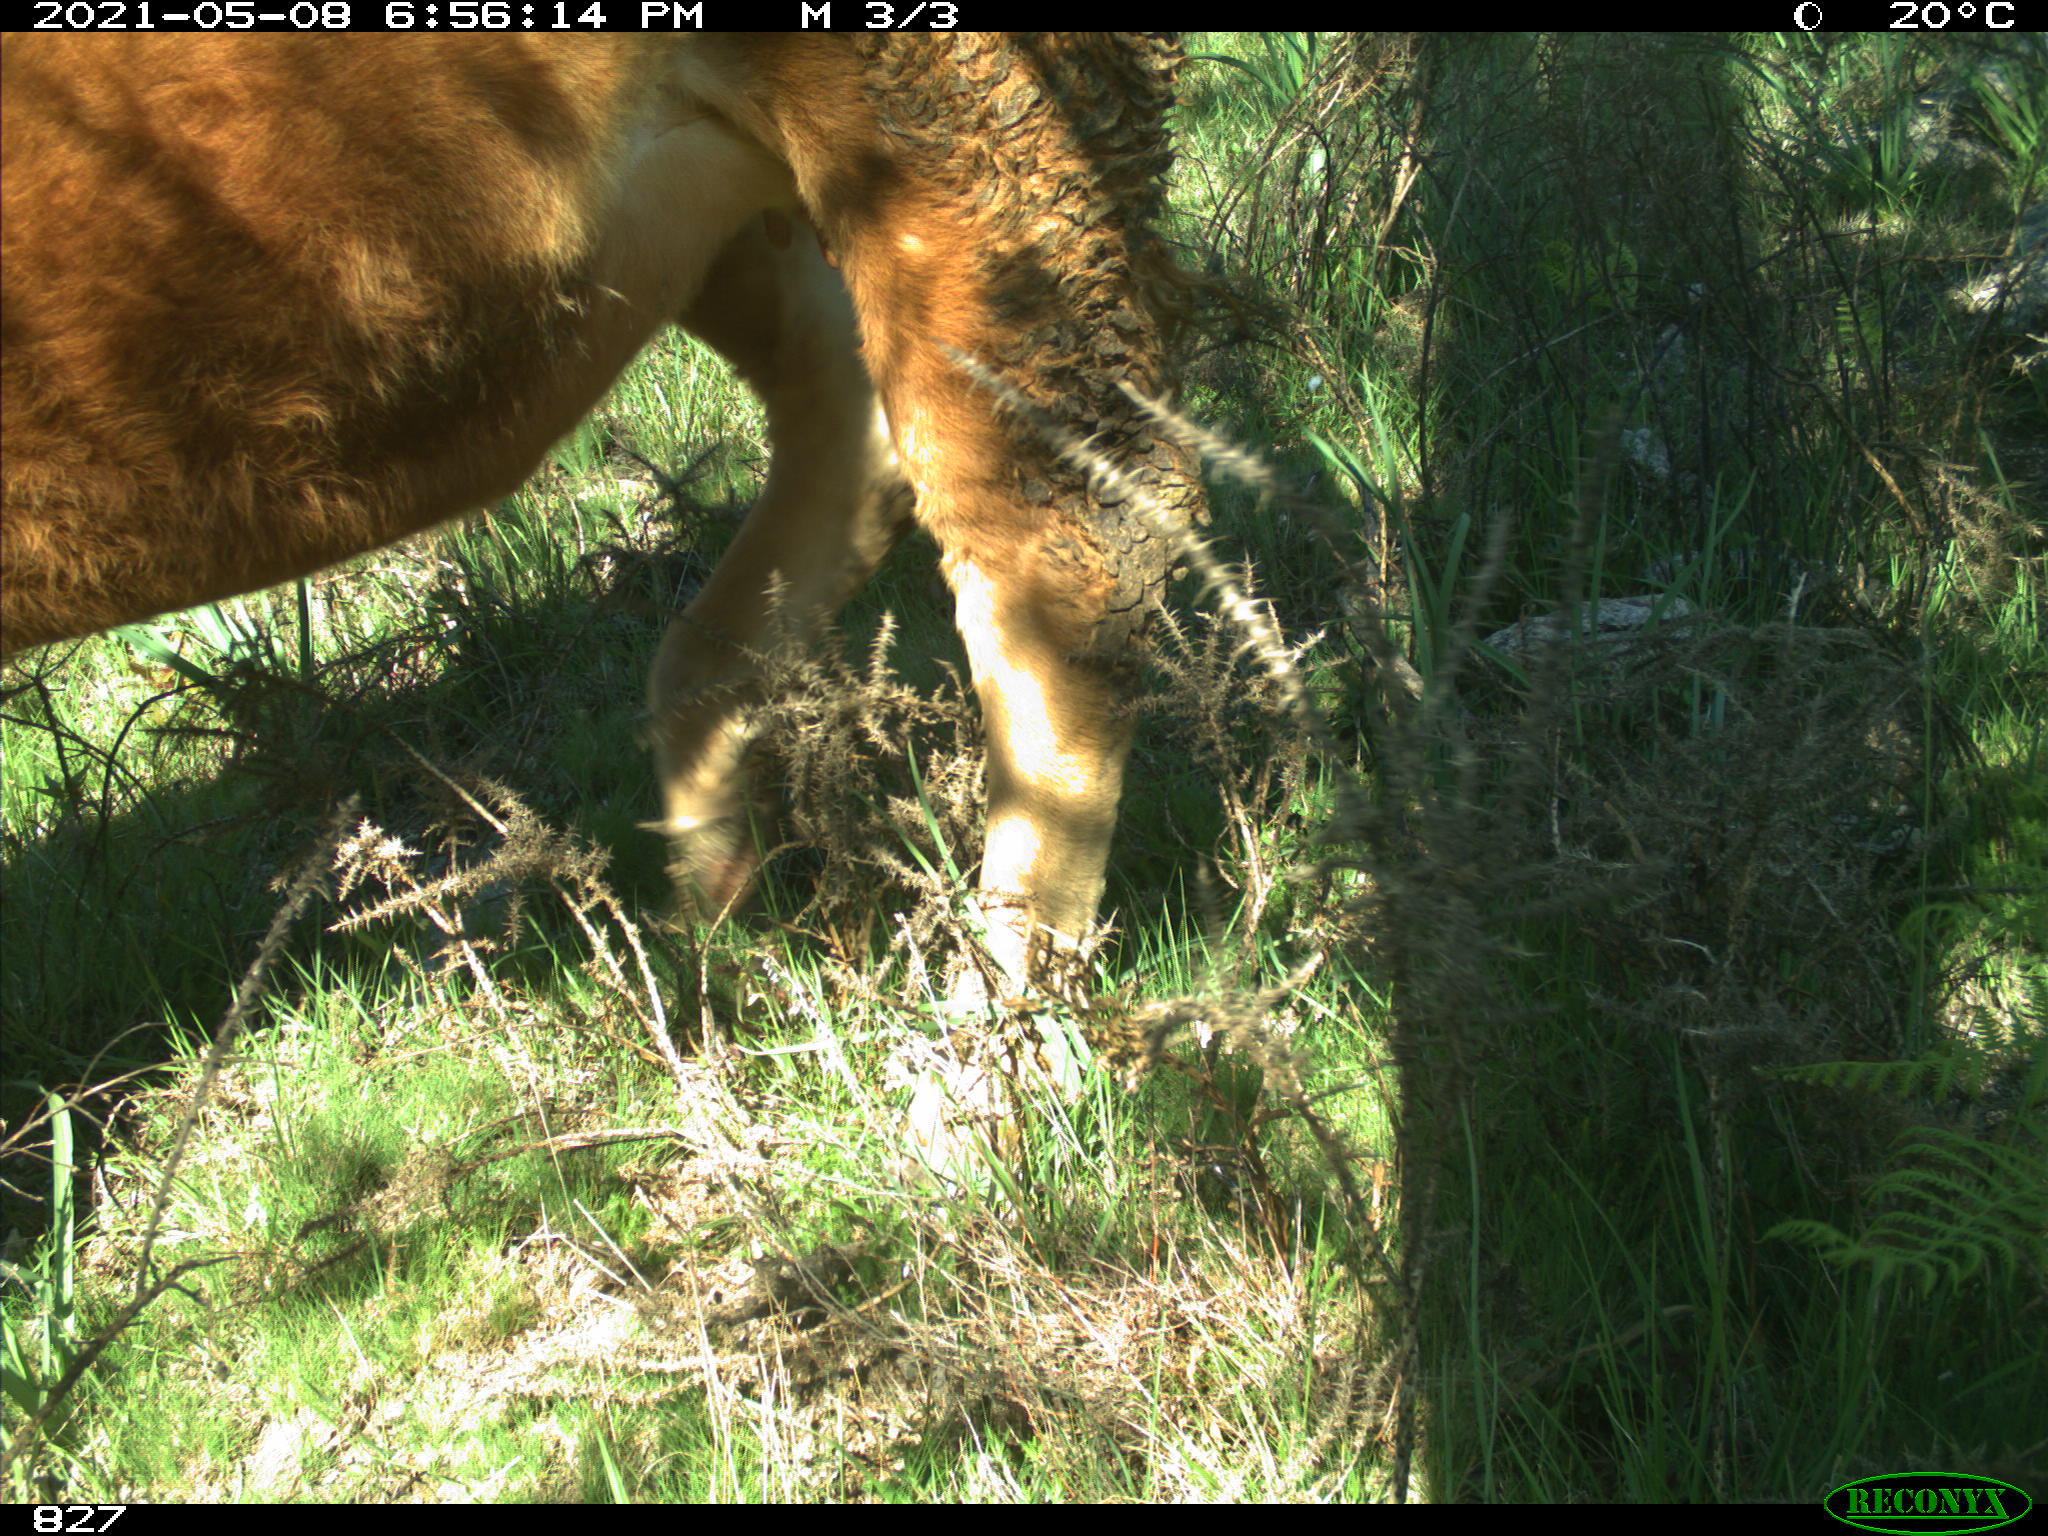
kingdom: Animalia
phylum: Chordata
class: Mammalia
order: Artiodactyla
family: Bovidae
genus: Bos
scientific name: Bos taurus
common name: Domesticated cattle
